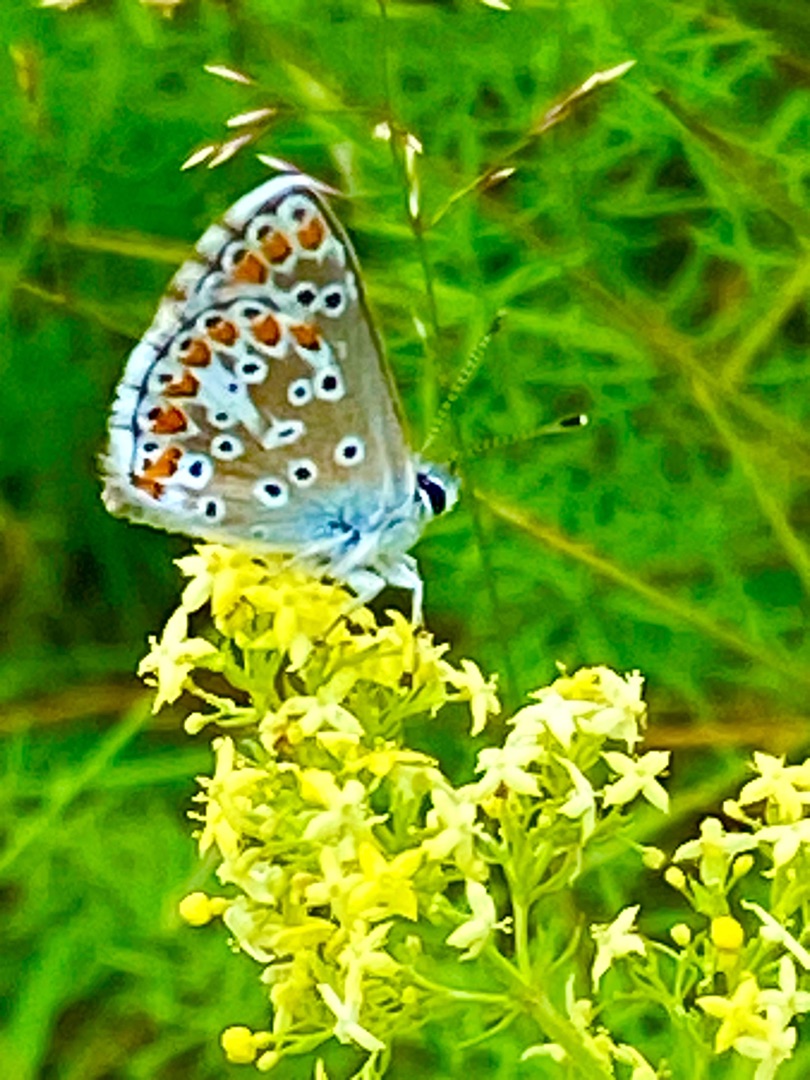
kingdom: Animalia
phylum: Arthropoda
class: Insecta
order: Lepidoptera
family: Lycaenidae
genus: Polyommatus
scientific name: Polyommatus icarus
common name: Almindelig blåfugl
